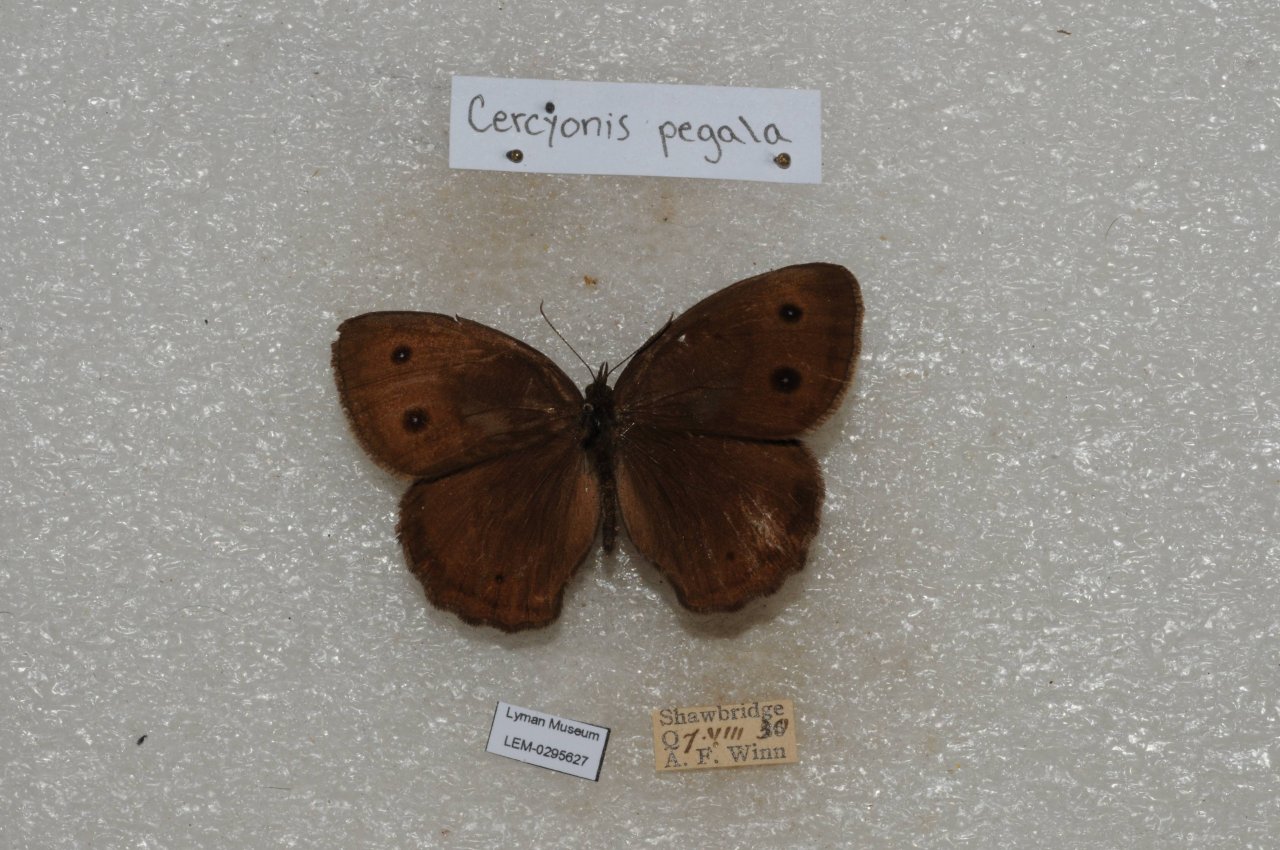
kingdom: Animalia
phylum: Arthropoda
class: Insecta
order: Lepidoptera
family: Nymphalidae
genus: Cercyonis
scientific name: Cercyonis pegala
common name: Common Wood-Nymph
